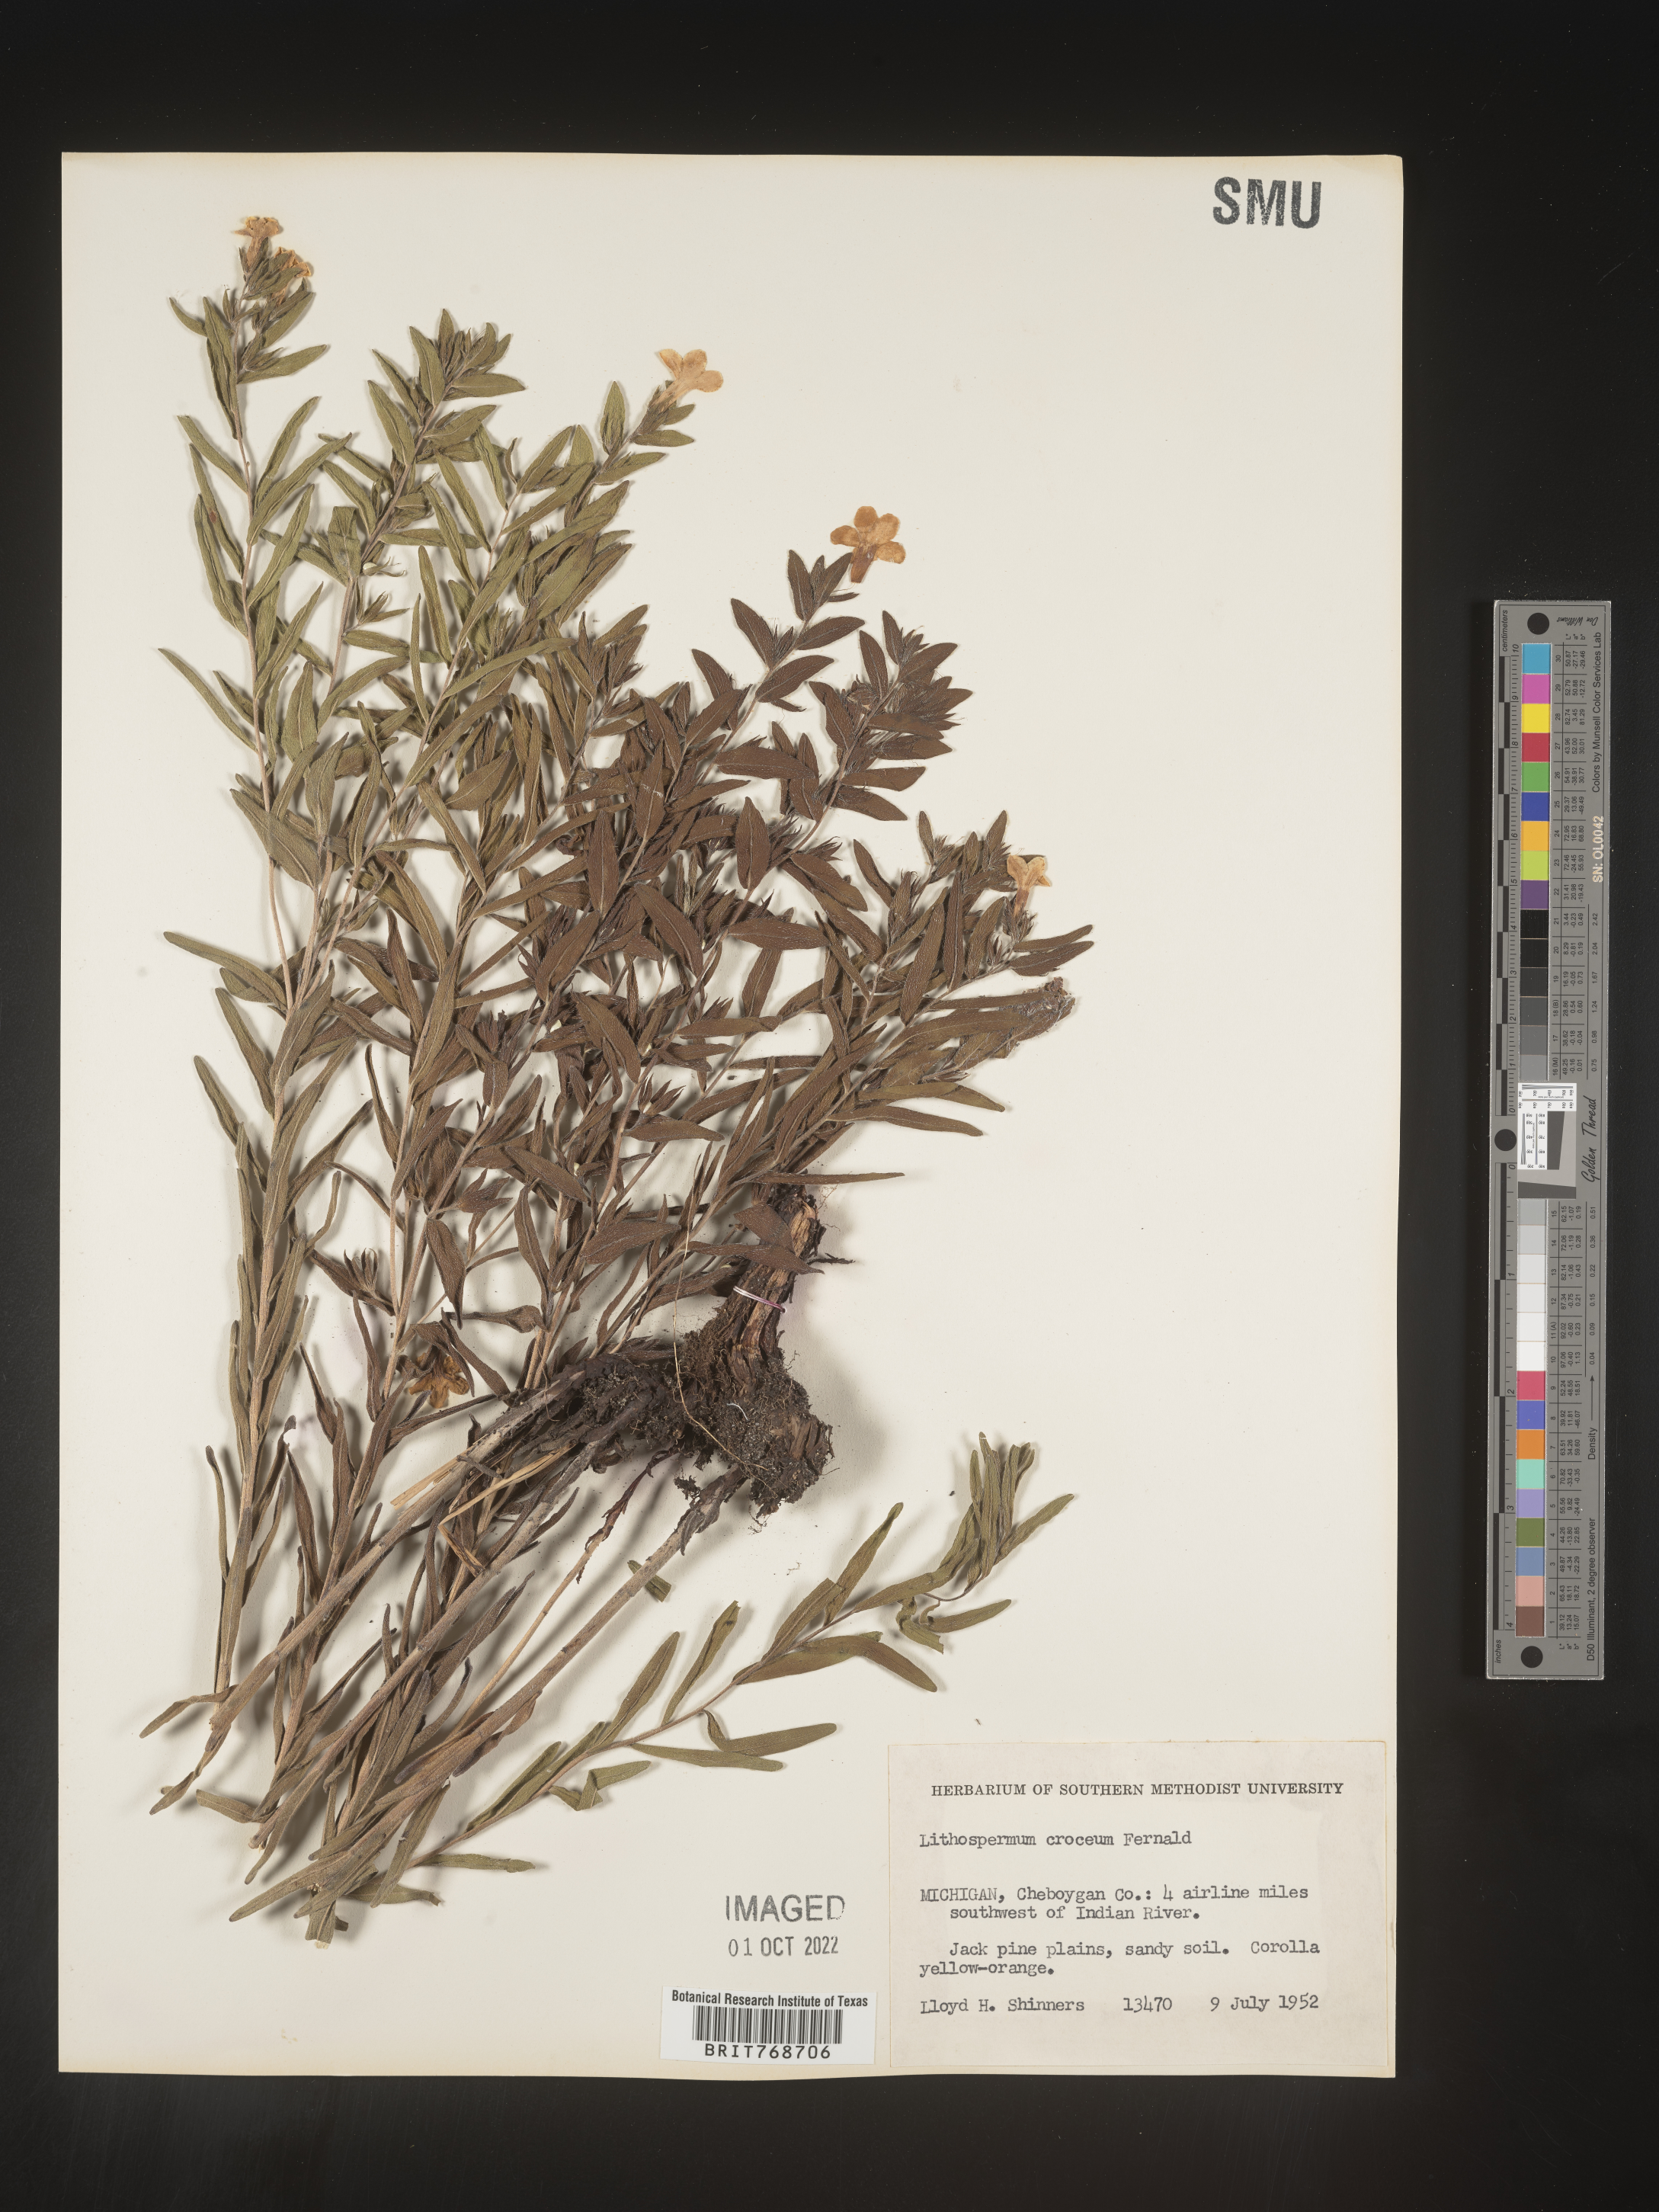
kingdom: Plantae
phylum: Tracheophyta
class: Magnoliopsida
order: Boraginales
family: Boraginaceae
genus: Lithospermum
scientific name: Lithospermum caroliniense
